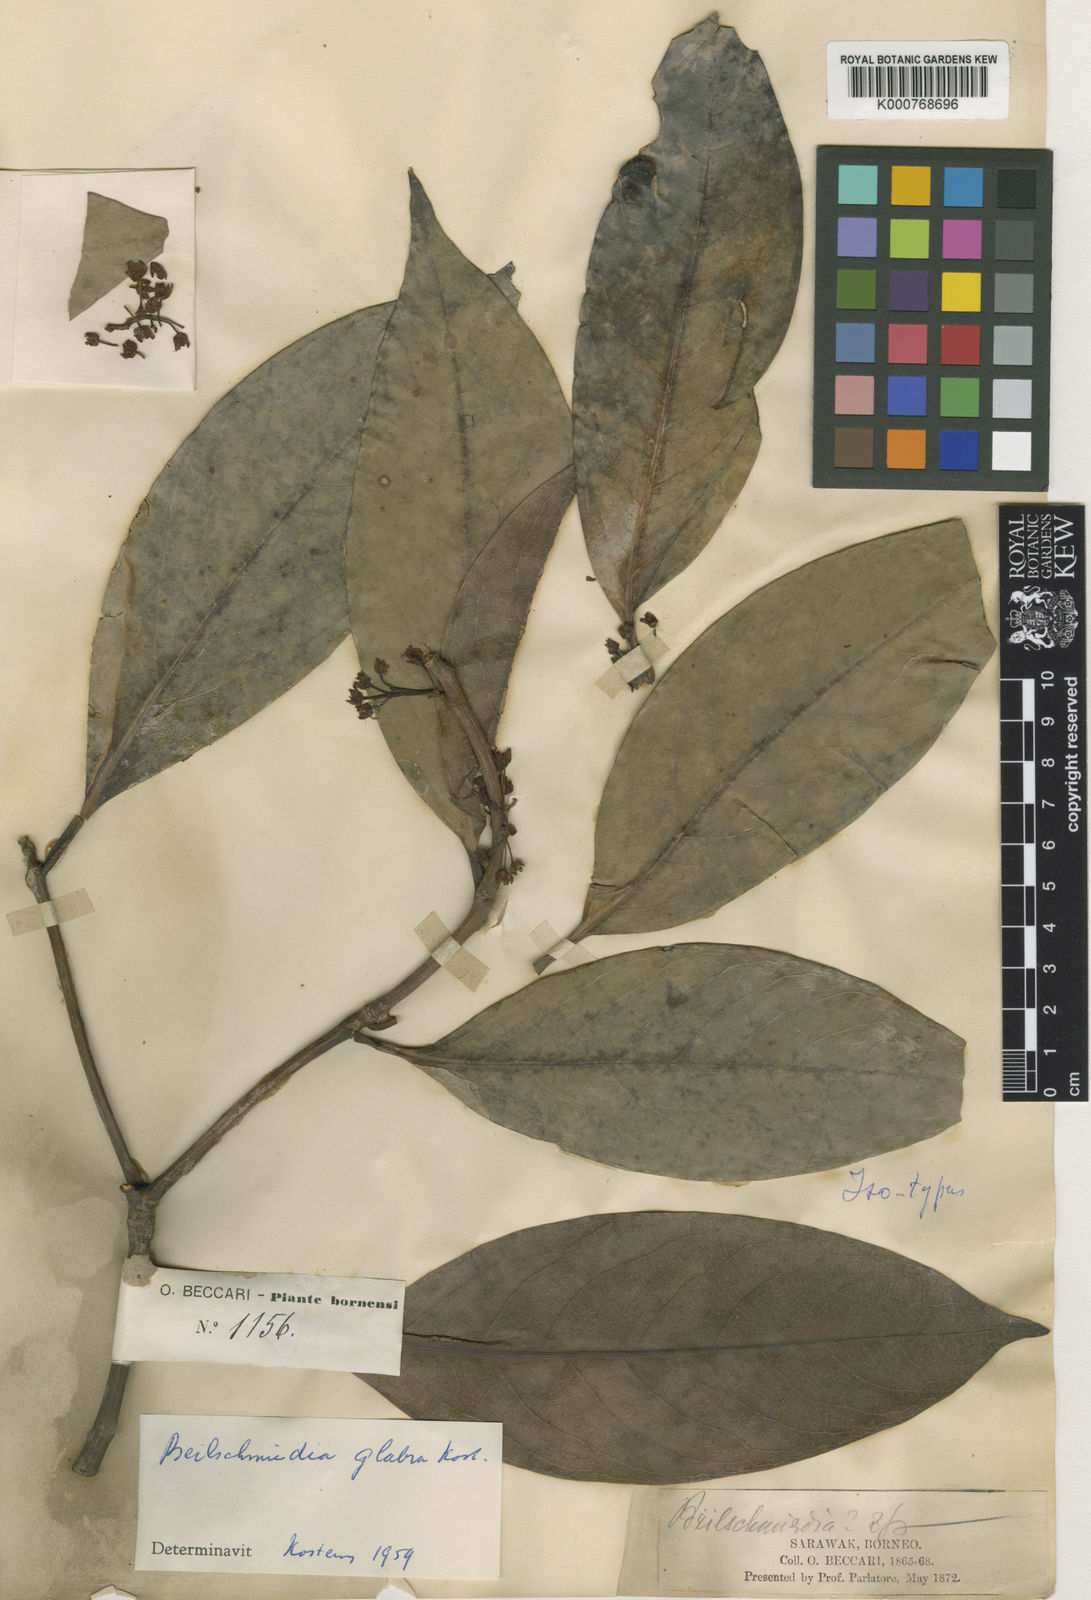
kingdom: Plantae
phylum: Tracheophyta
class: Magnoliopsida
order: Laurales
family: Lauraceae
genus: Beilschmiedia
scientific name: Beilschmiedia glabra
